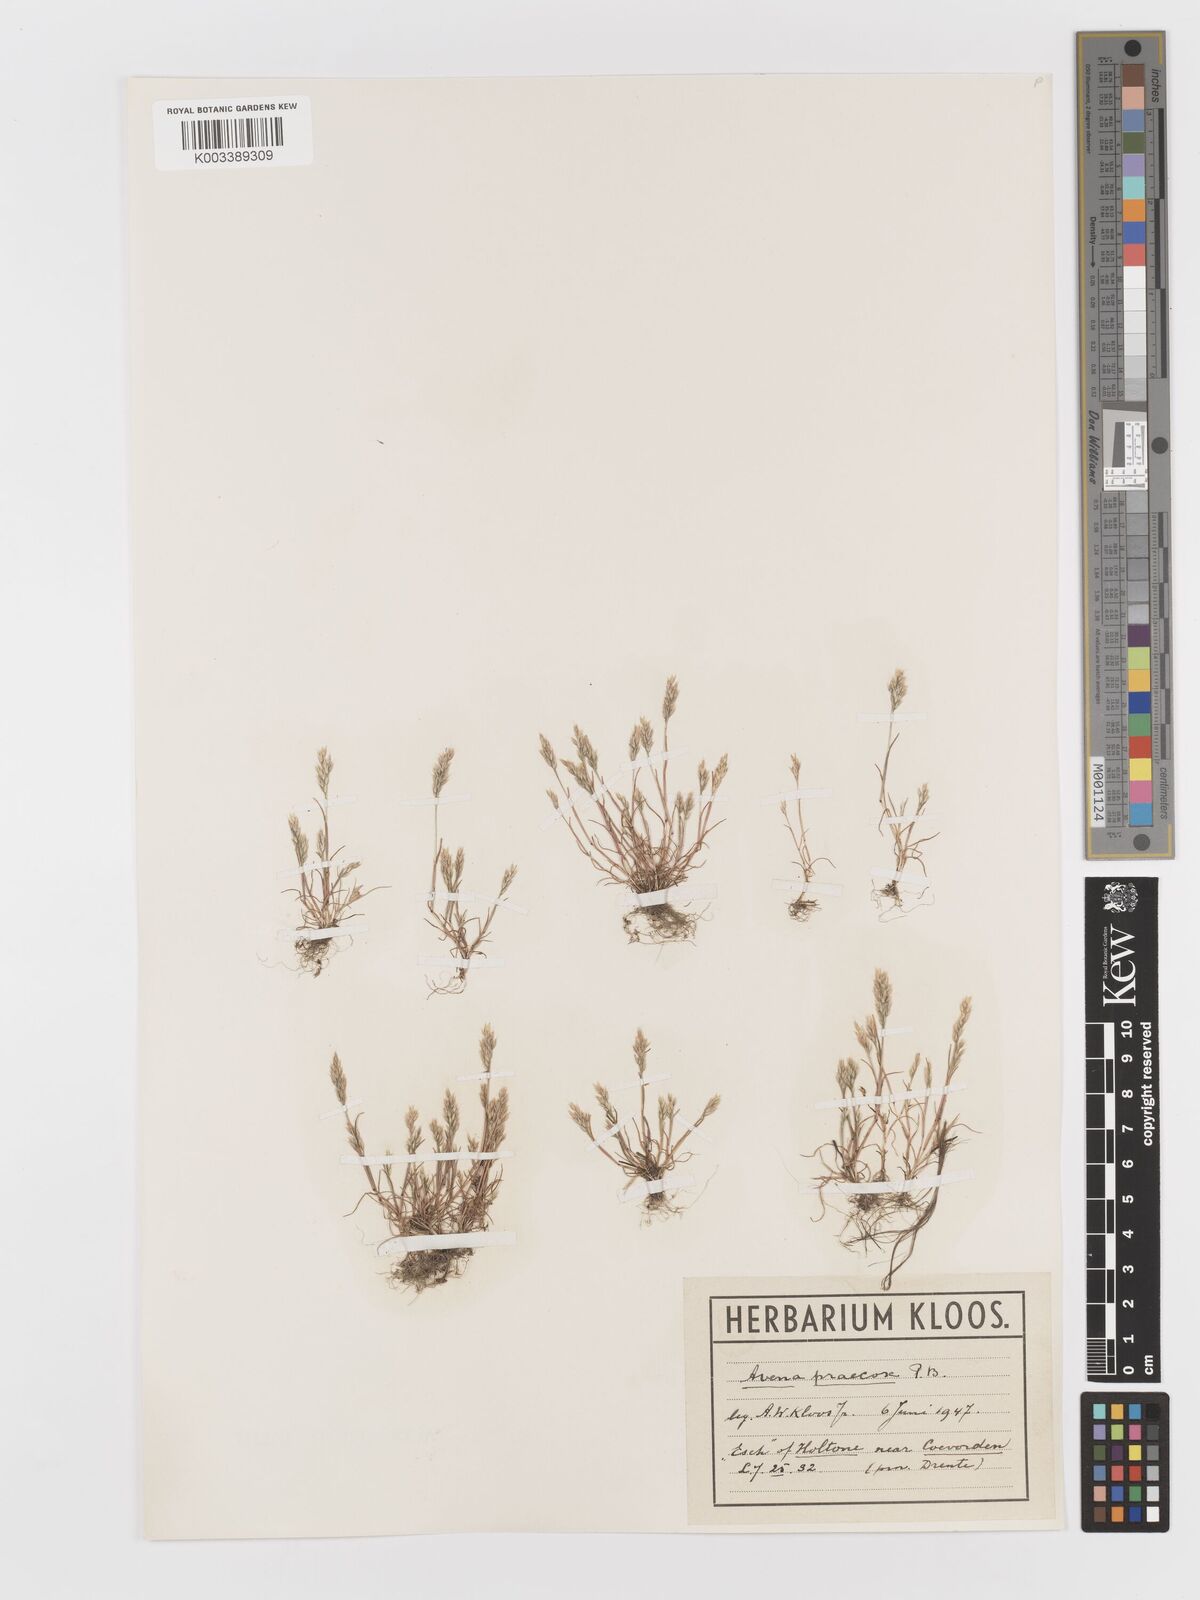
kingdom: Plantae
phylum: Tracheophyta
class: Liliopsida
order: Poales
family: Poaceae
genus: Aira
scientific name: Aira praecox
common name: Early hair-grass
